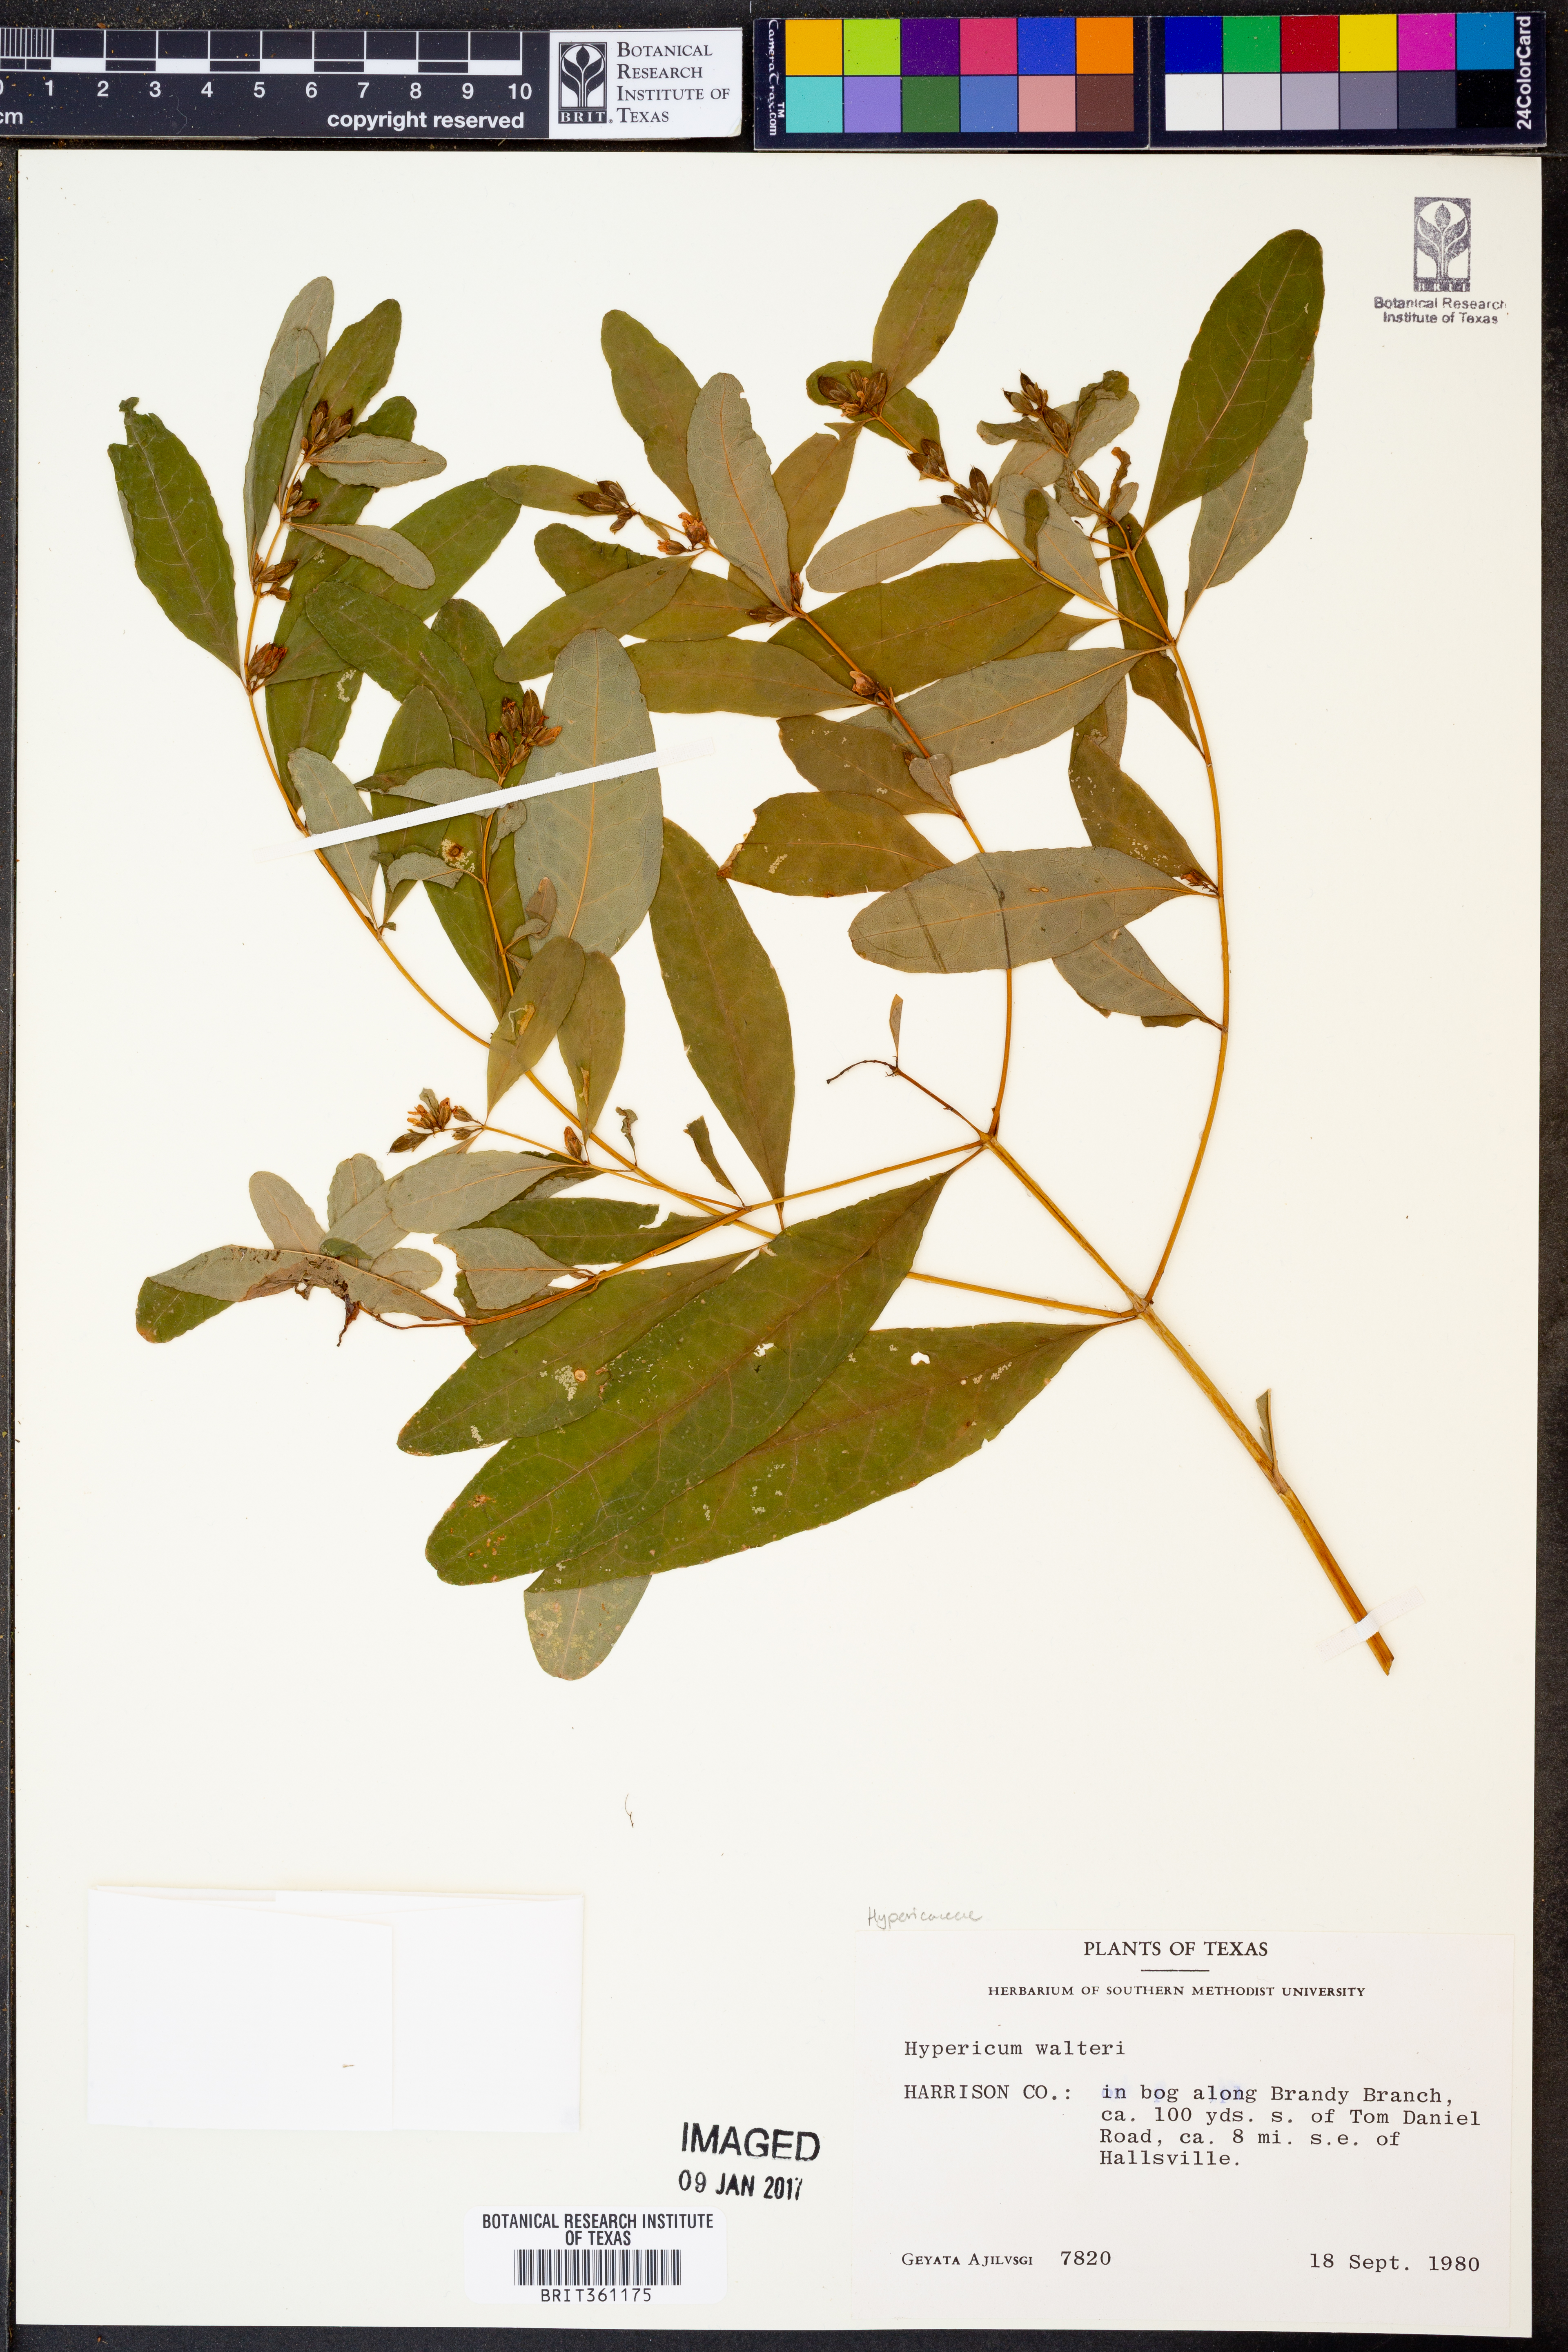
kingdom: Plantae
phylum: Tracheophyta
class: Magnoliopsida
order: Malpighiales
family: Hypericaceae
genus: Triadenum
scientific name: Triadenum walteri
